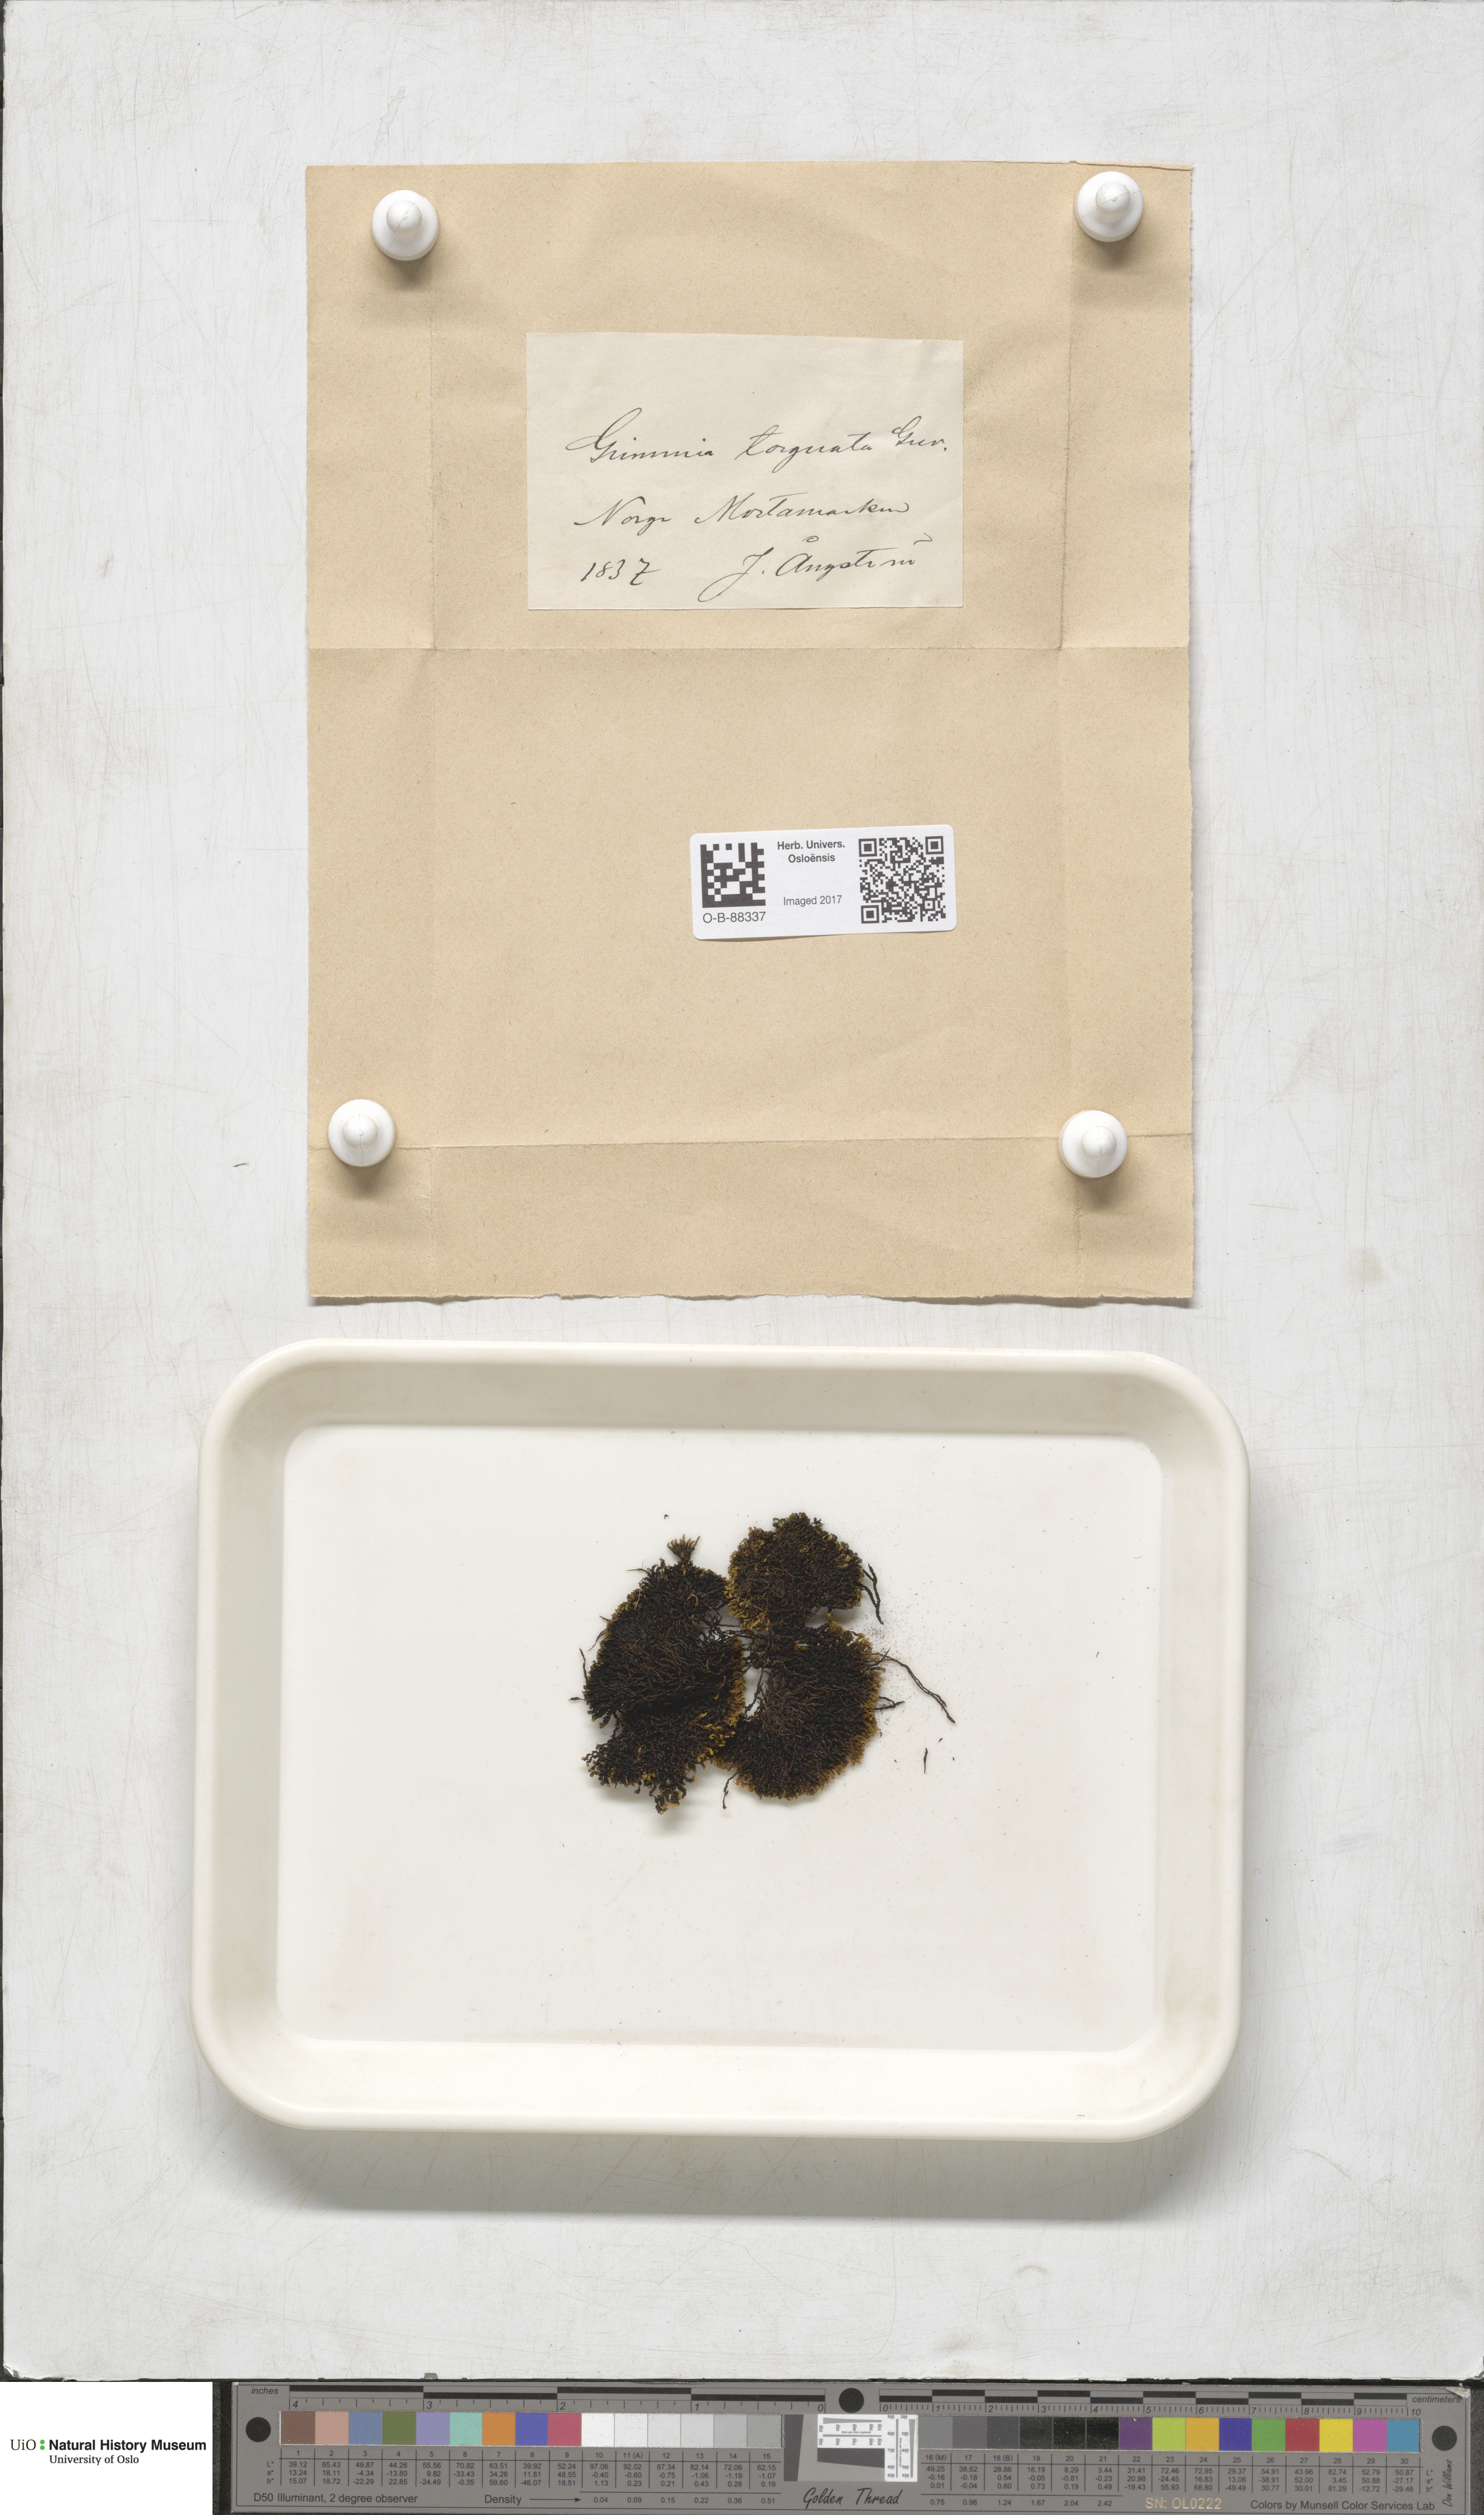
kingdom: Plantae
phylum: Bryophyta
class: Bryopsida
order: Grimmiales
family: Grimmiaceae
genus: Grimmia
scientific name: Grimmia torquata
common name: Twisted grimmia
